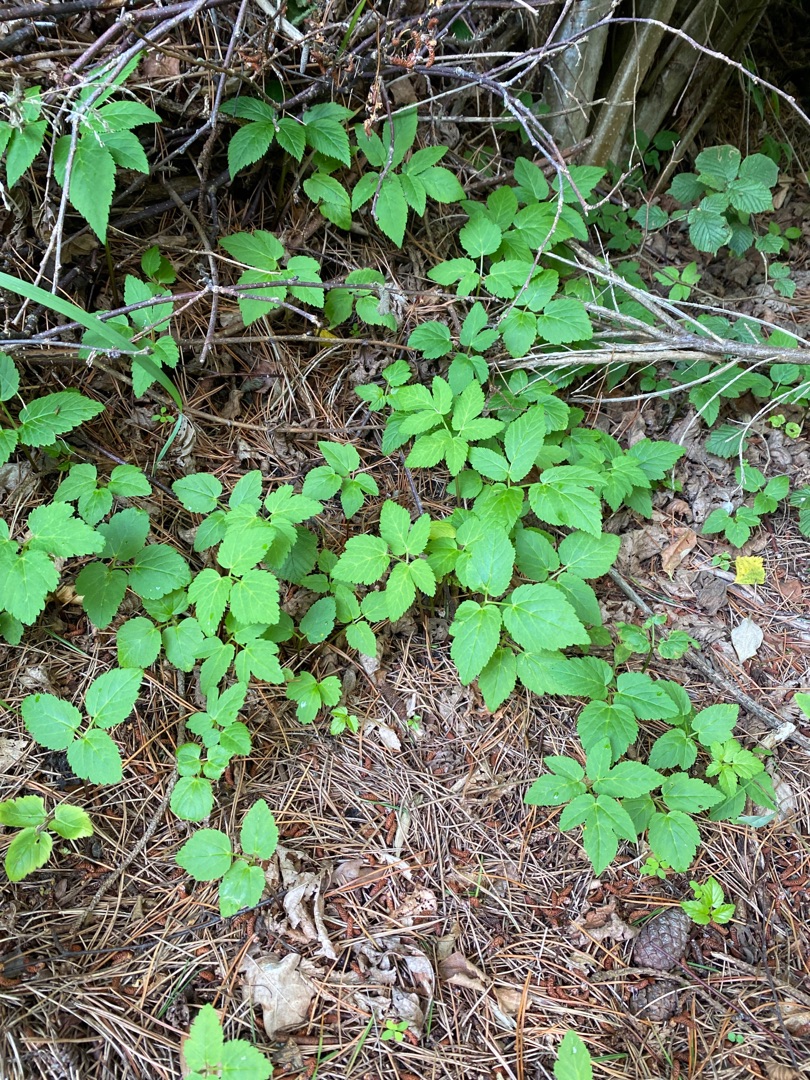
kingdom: Plantae
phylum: Tracheophyta
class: Magnoliopsida
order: Apiales
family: Apiaceae
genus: Aegopodium
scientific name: Aegopodium podagraria
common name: Skvalderkål
